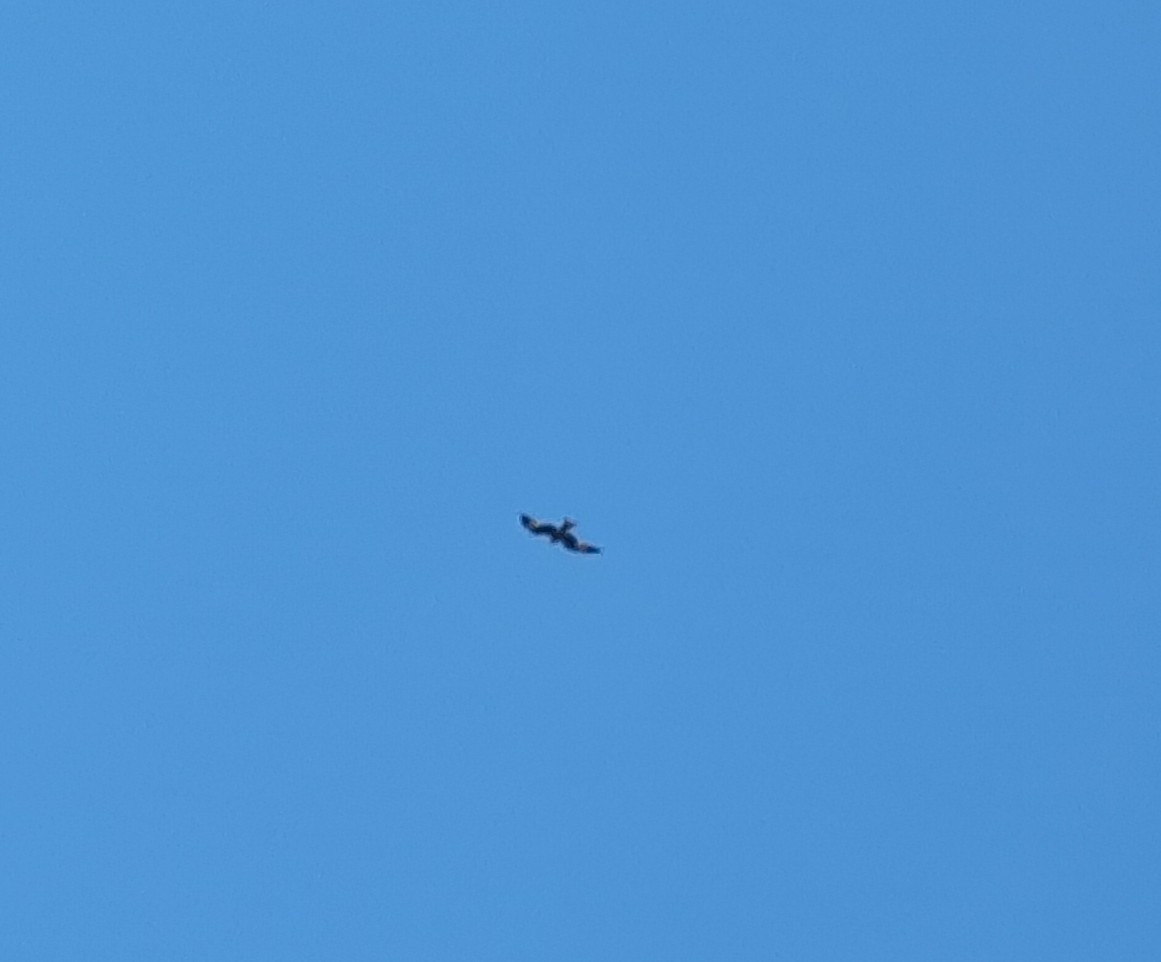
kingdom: Animalia
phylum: Chordata
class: Aves
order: Accipitriformes
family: Accipitridae
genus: Milvus
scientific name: Milvus milvus
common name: Rød glente
